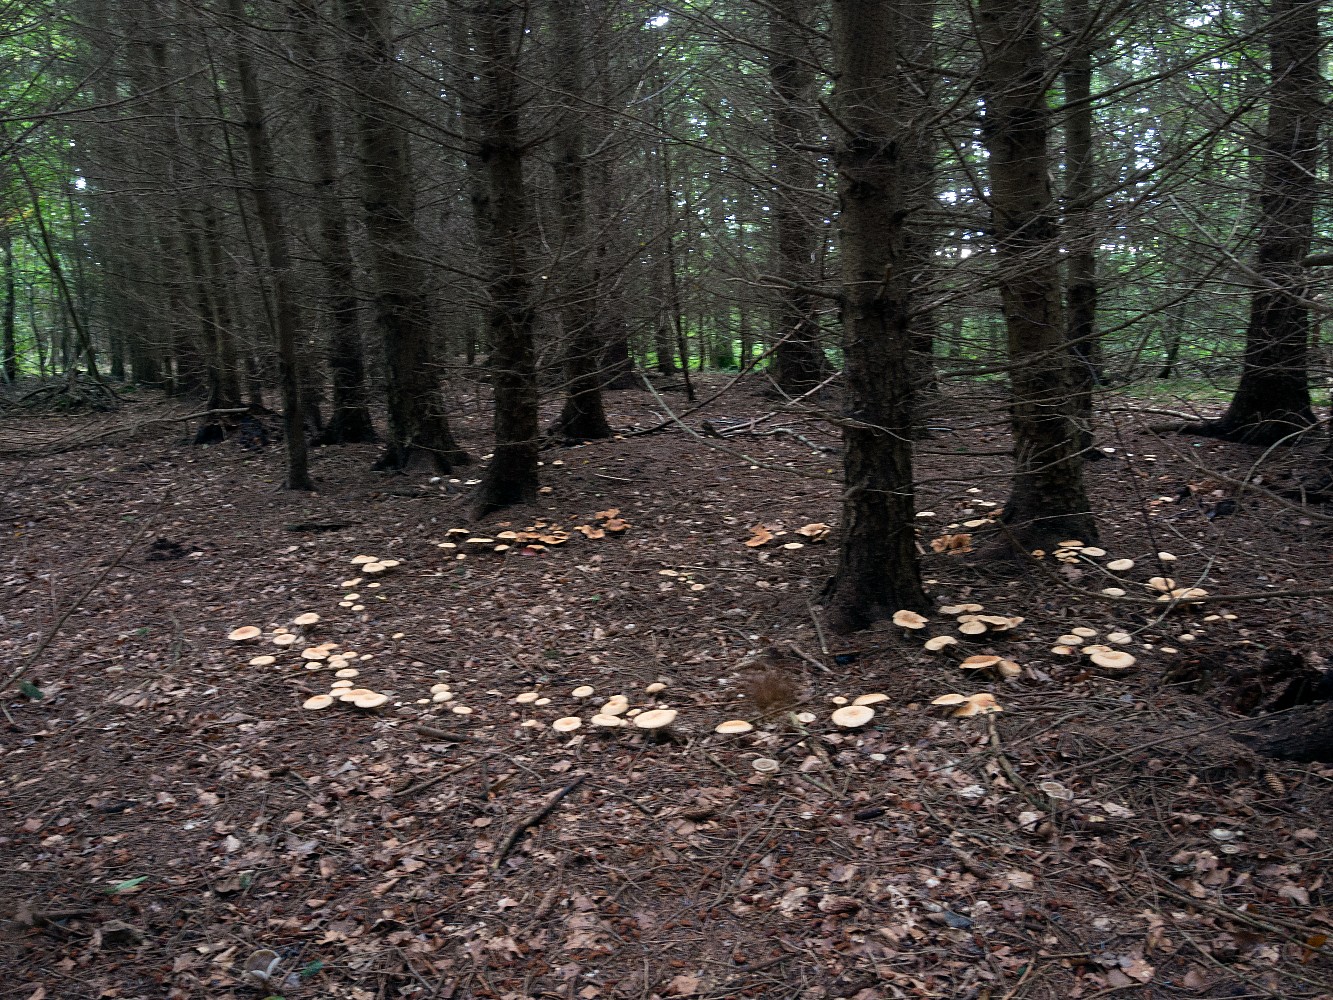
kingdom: Fungi
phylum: Basidiomycota
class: Agaricomycetes
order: Agaricales
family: Tricholomataceae
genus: Paralepista
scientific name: Paralepista flaccida
